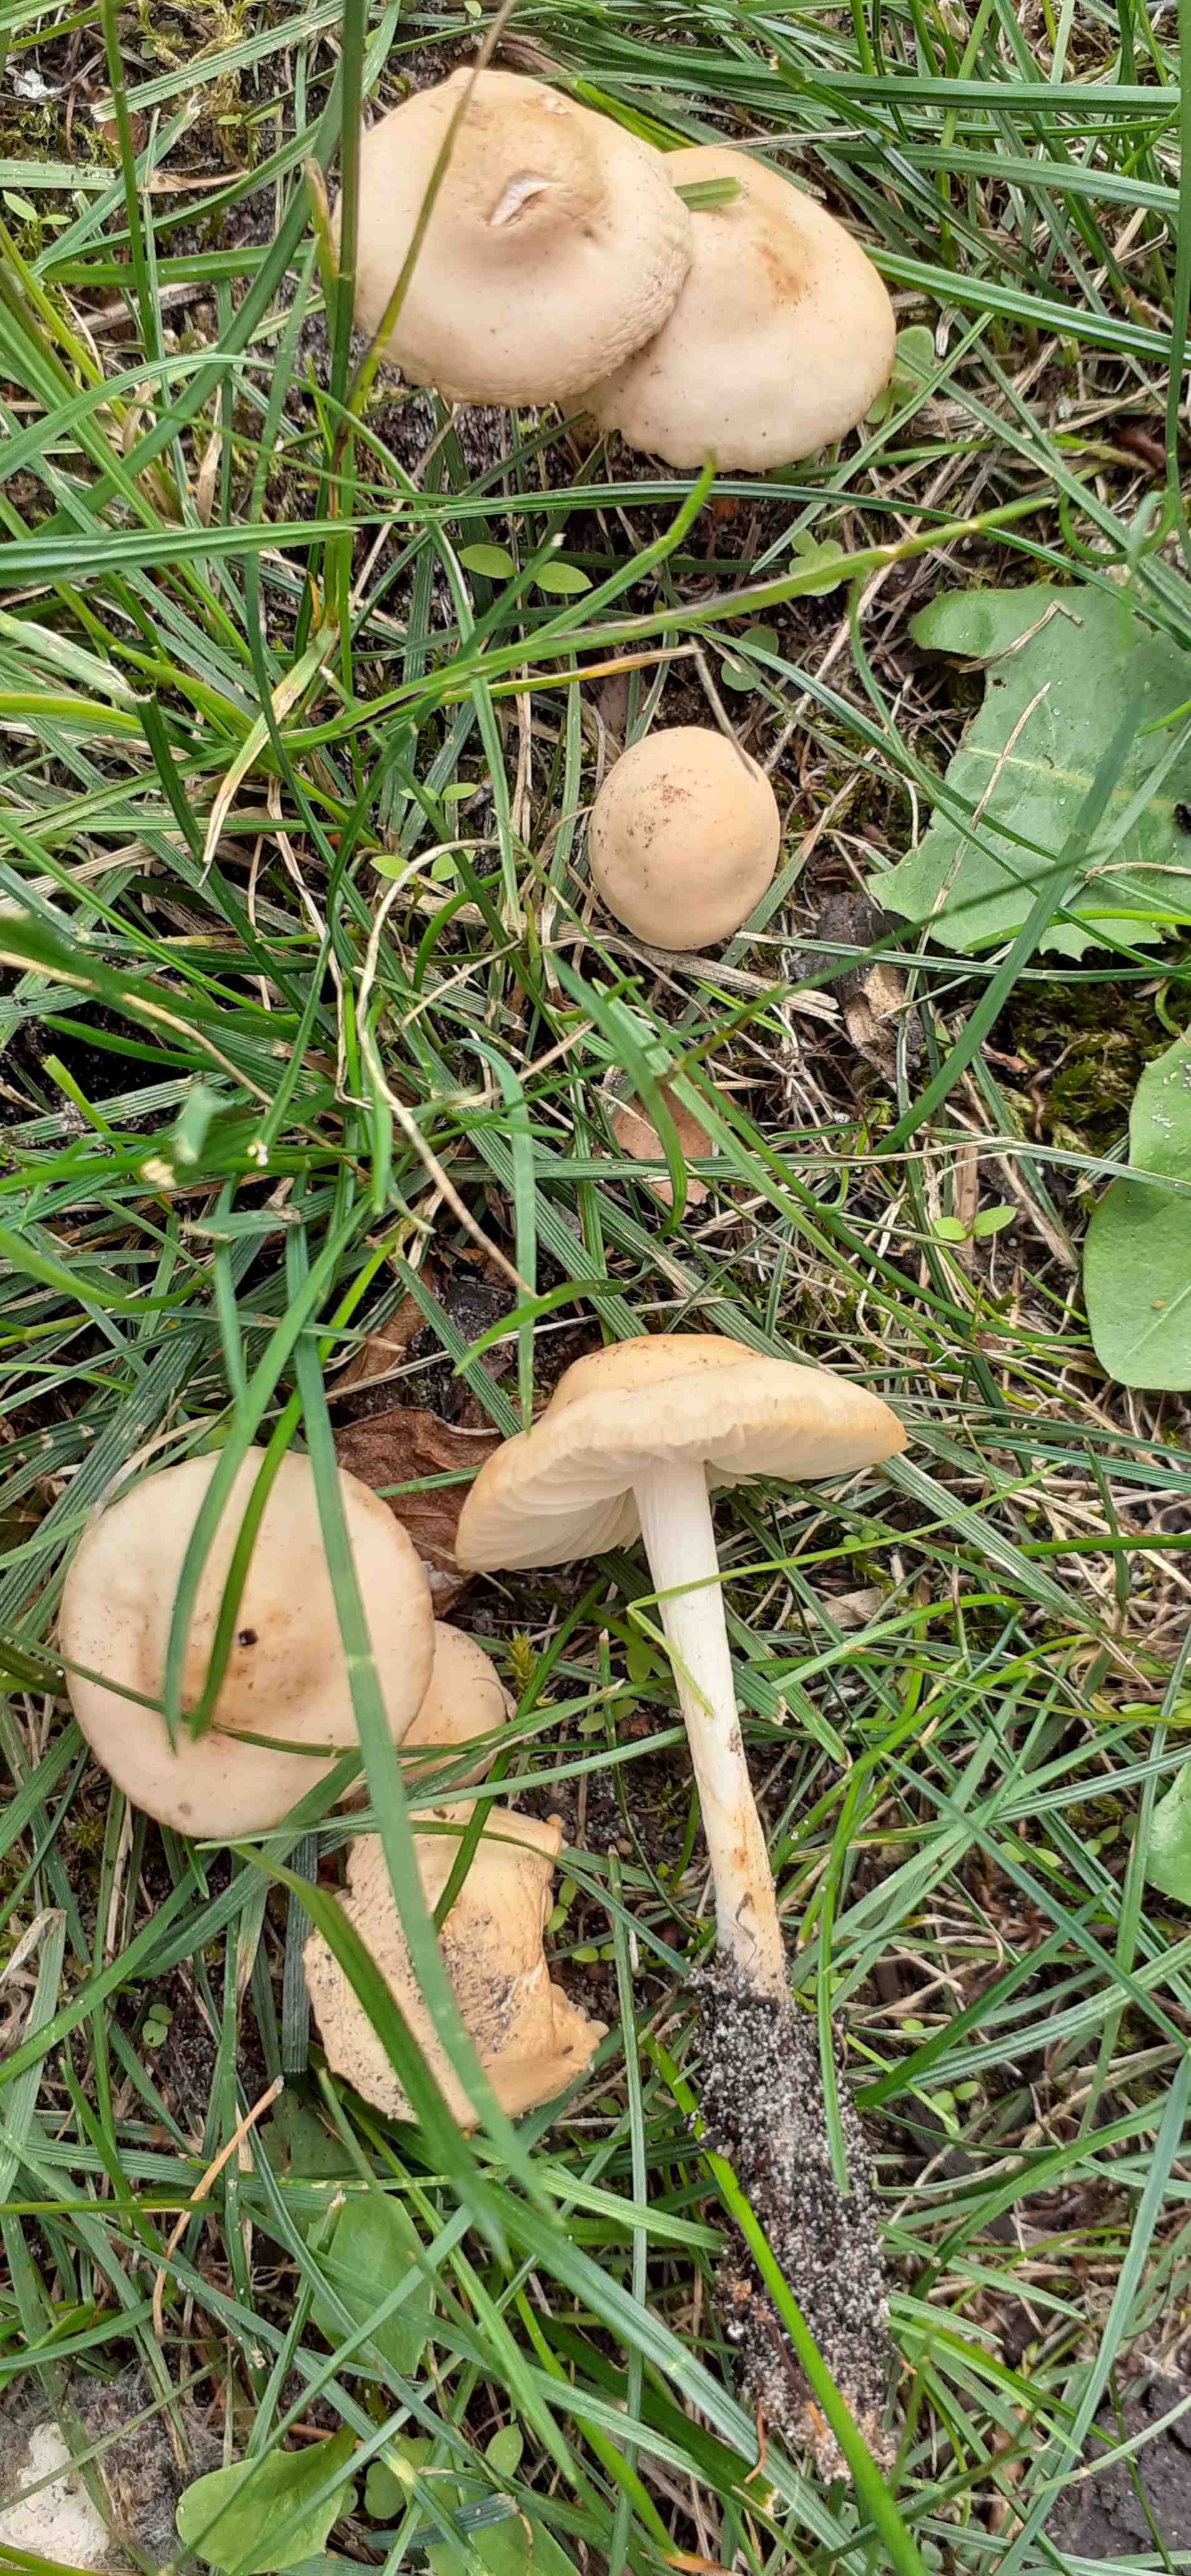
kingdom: Fungi
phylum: Basidiomycota
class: Agaricomycetes
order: Agaricales
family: Marasmiaceae
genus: Marasmius
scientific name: Marasmius oreades
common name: elledans-bruskhat
